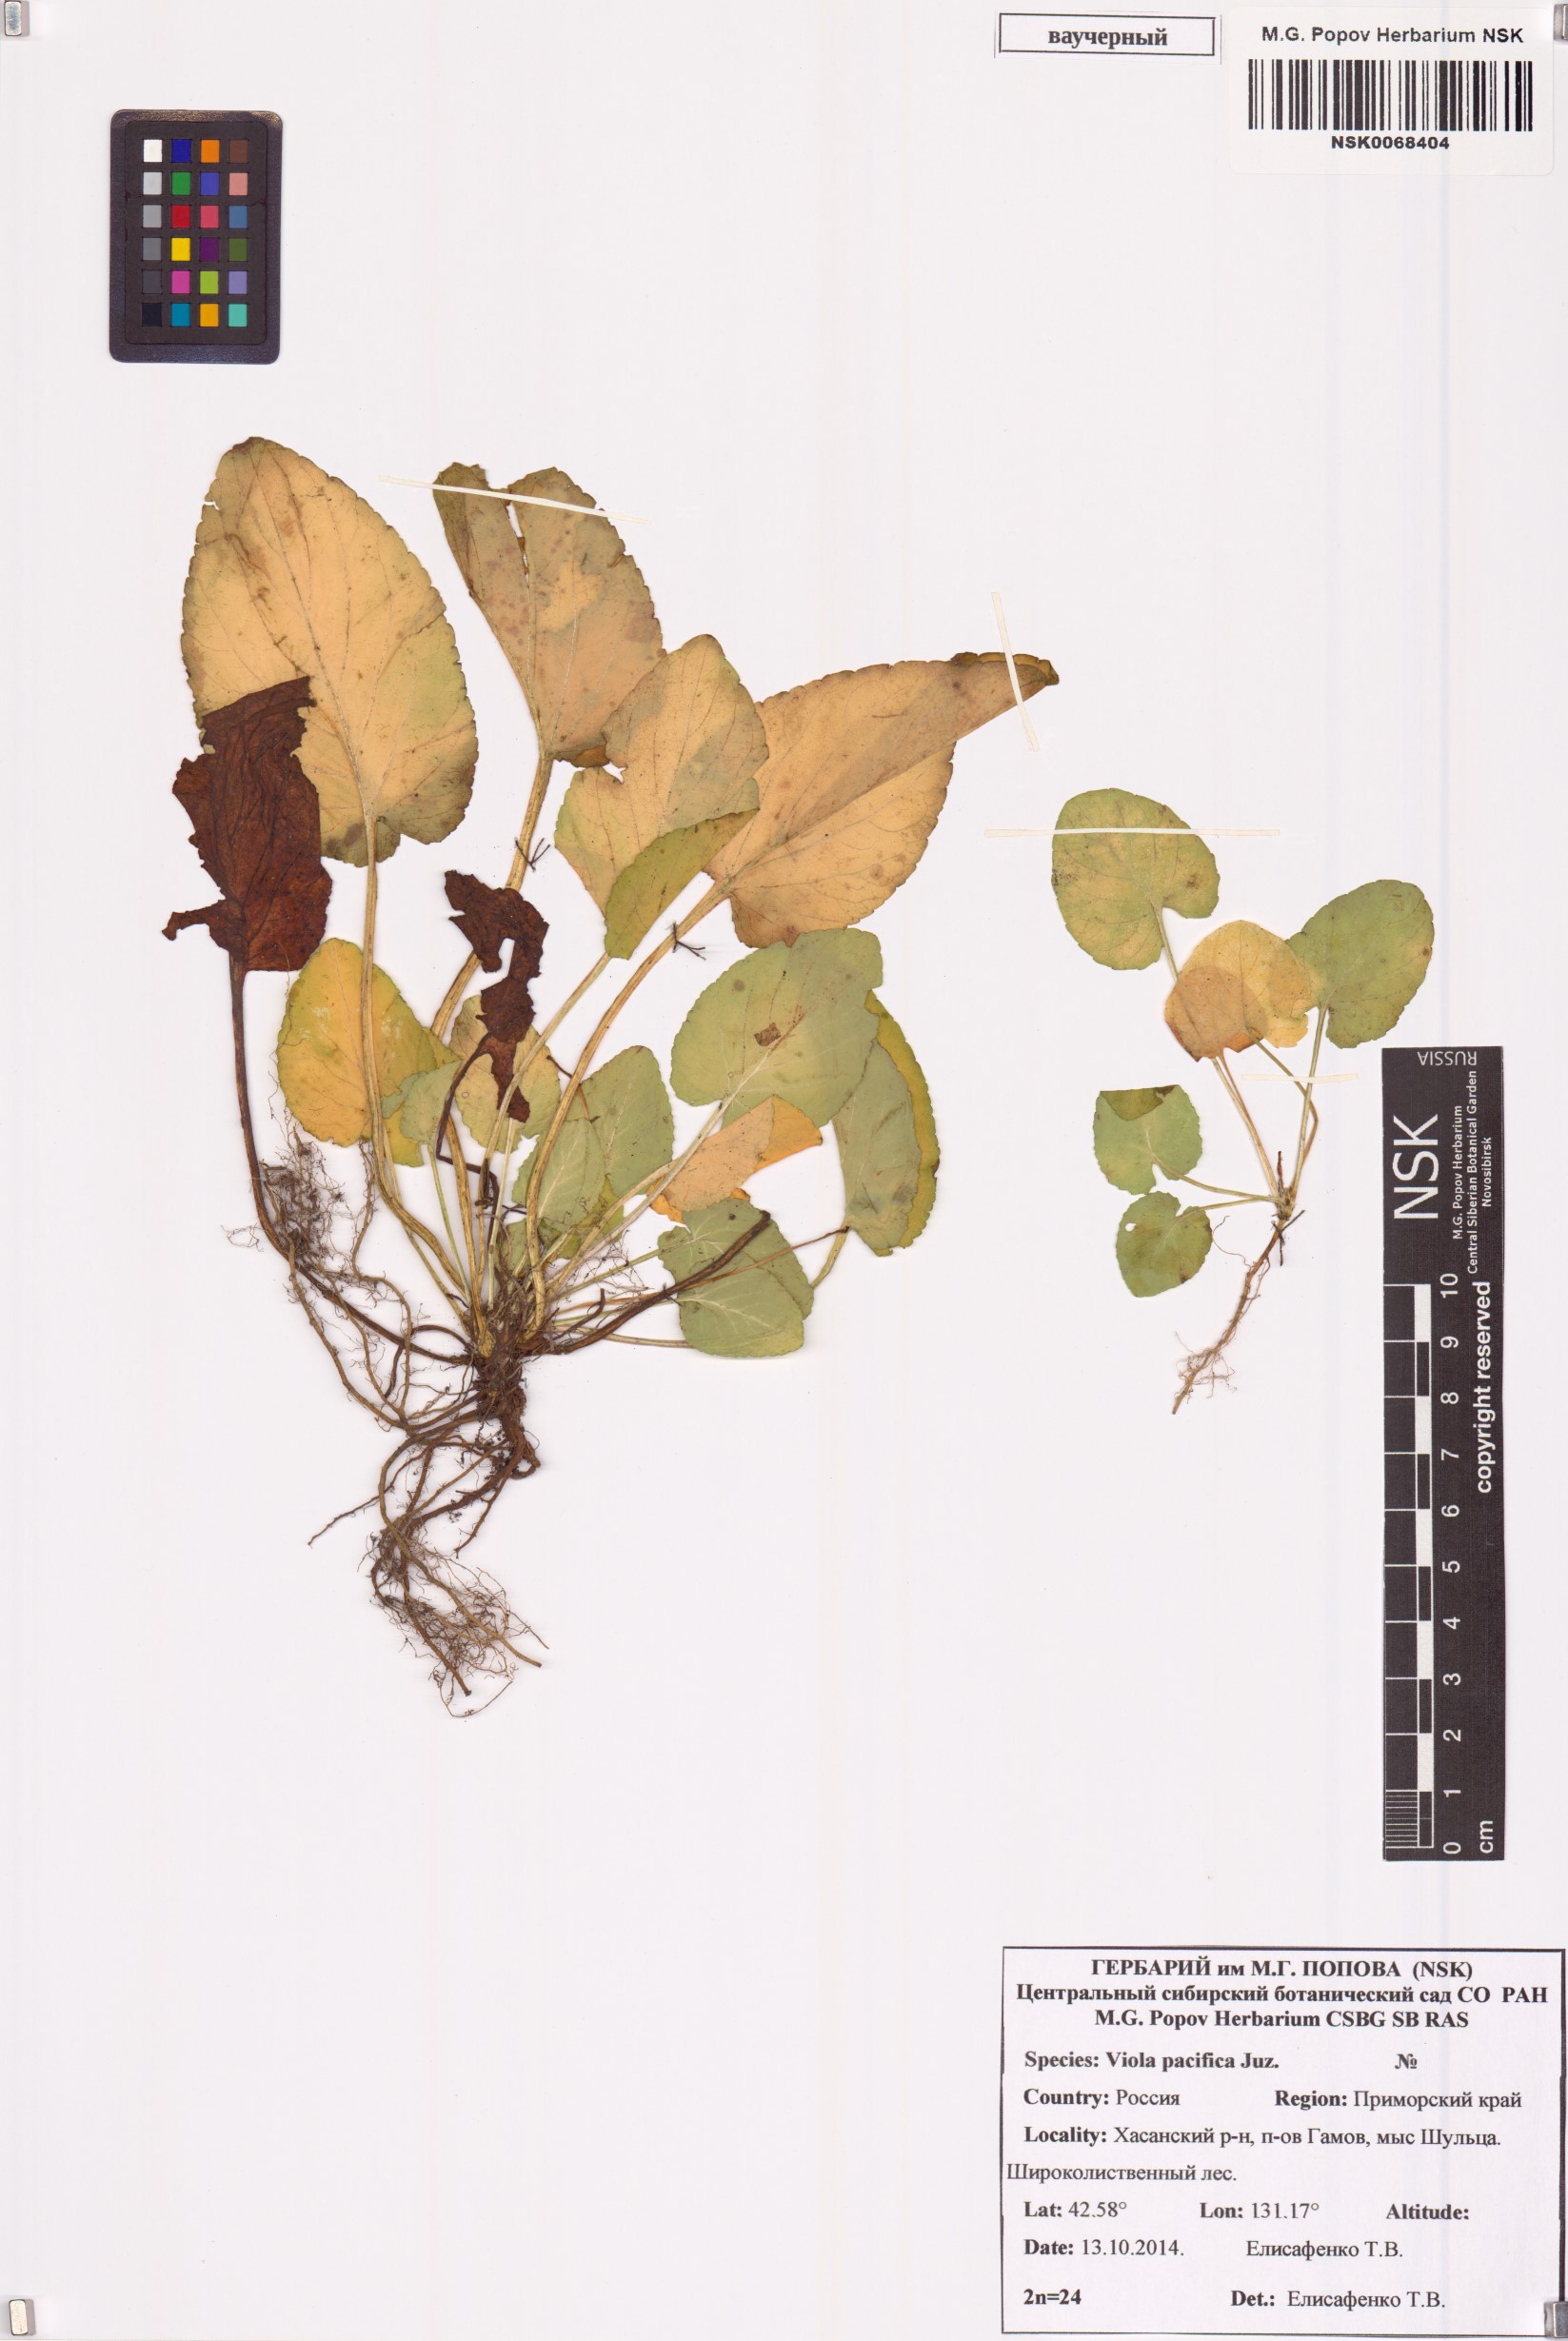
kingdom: Plantae
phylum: Tracheophyta
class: Magnoliopsida
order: Malpighiales
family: Violaceae
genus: Viola
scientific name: Viola pacifica
